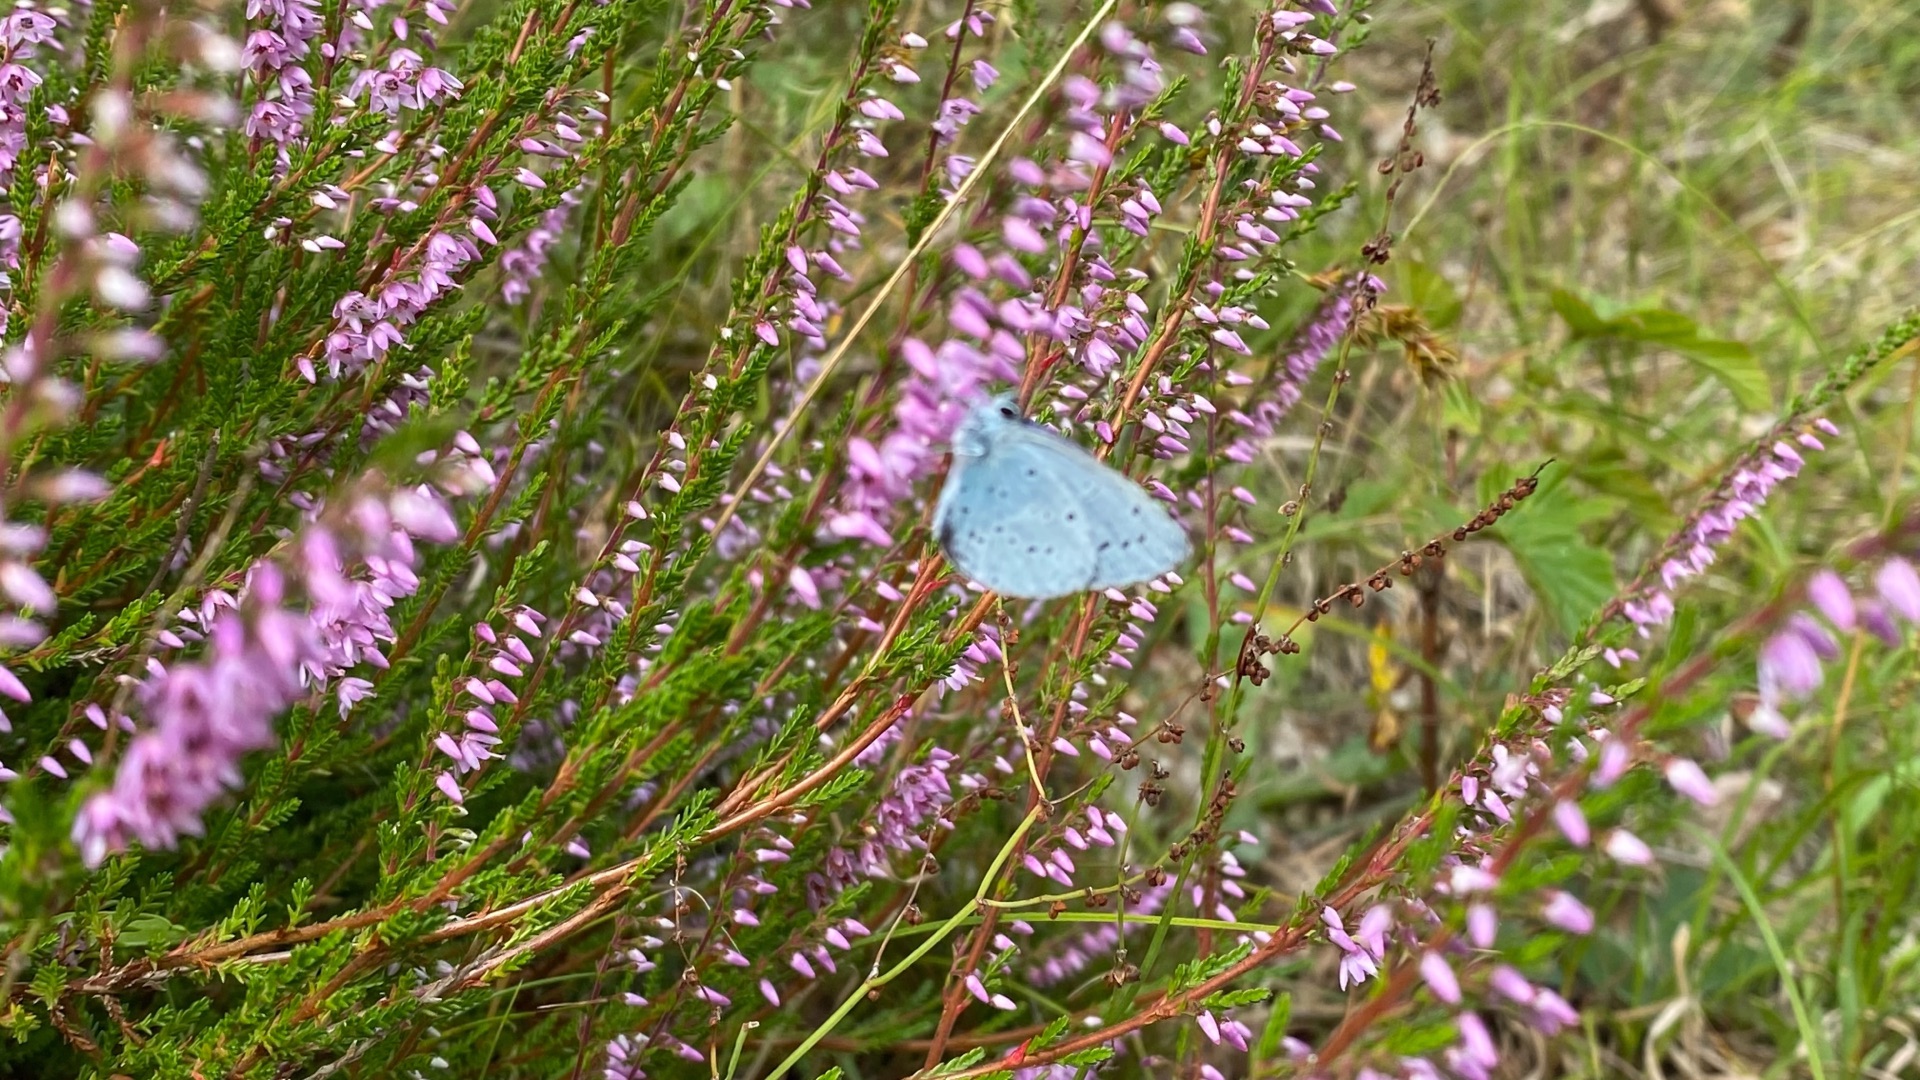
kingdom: Animalia
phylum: Arthropoda
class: Insecta
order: Lepidoptera
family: Lycaenidae
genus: Celastrina
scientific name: Celastrina argiolus
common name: Skovblåfugl
